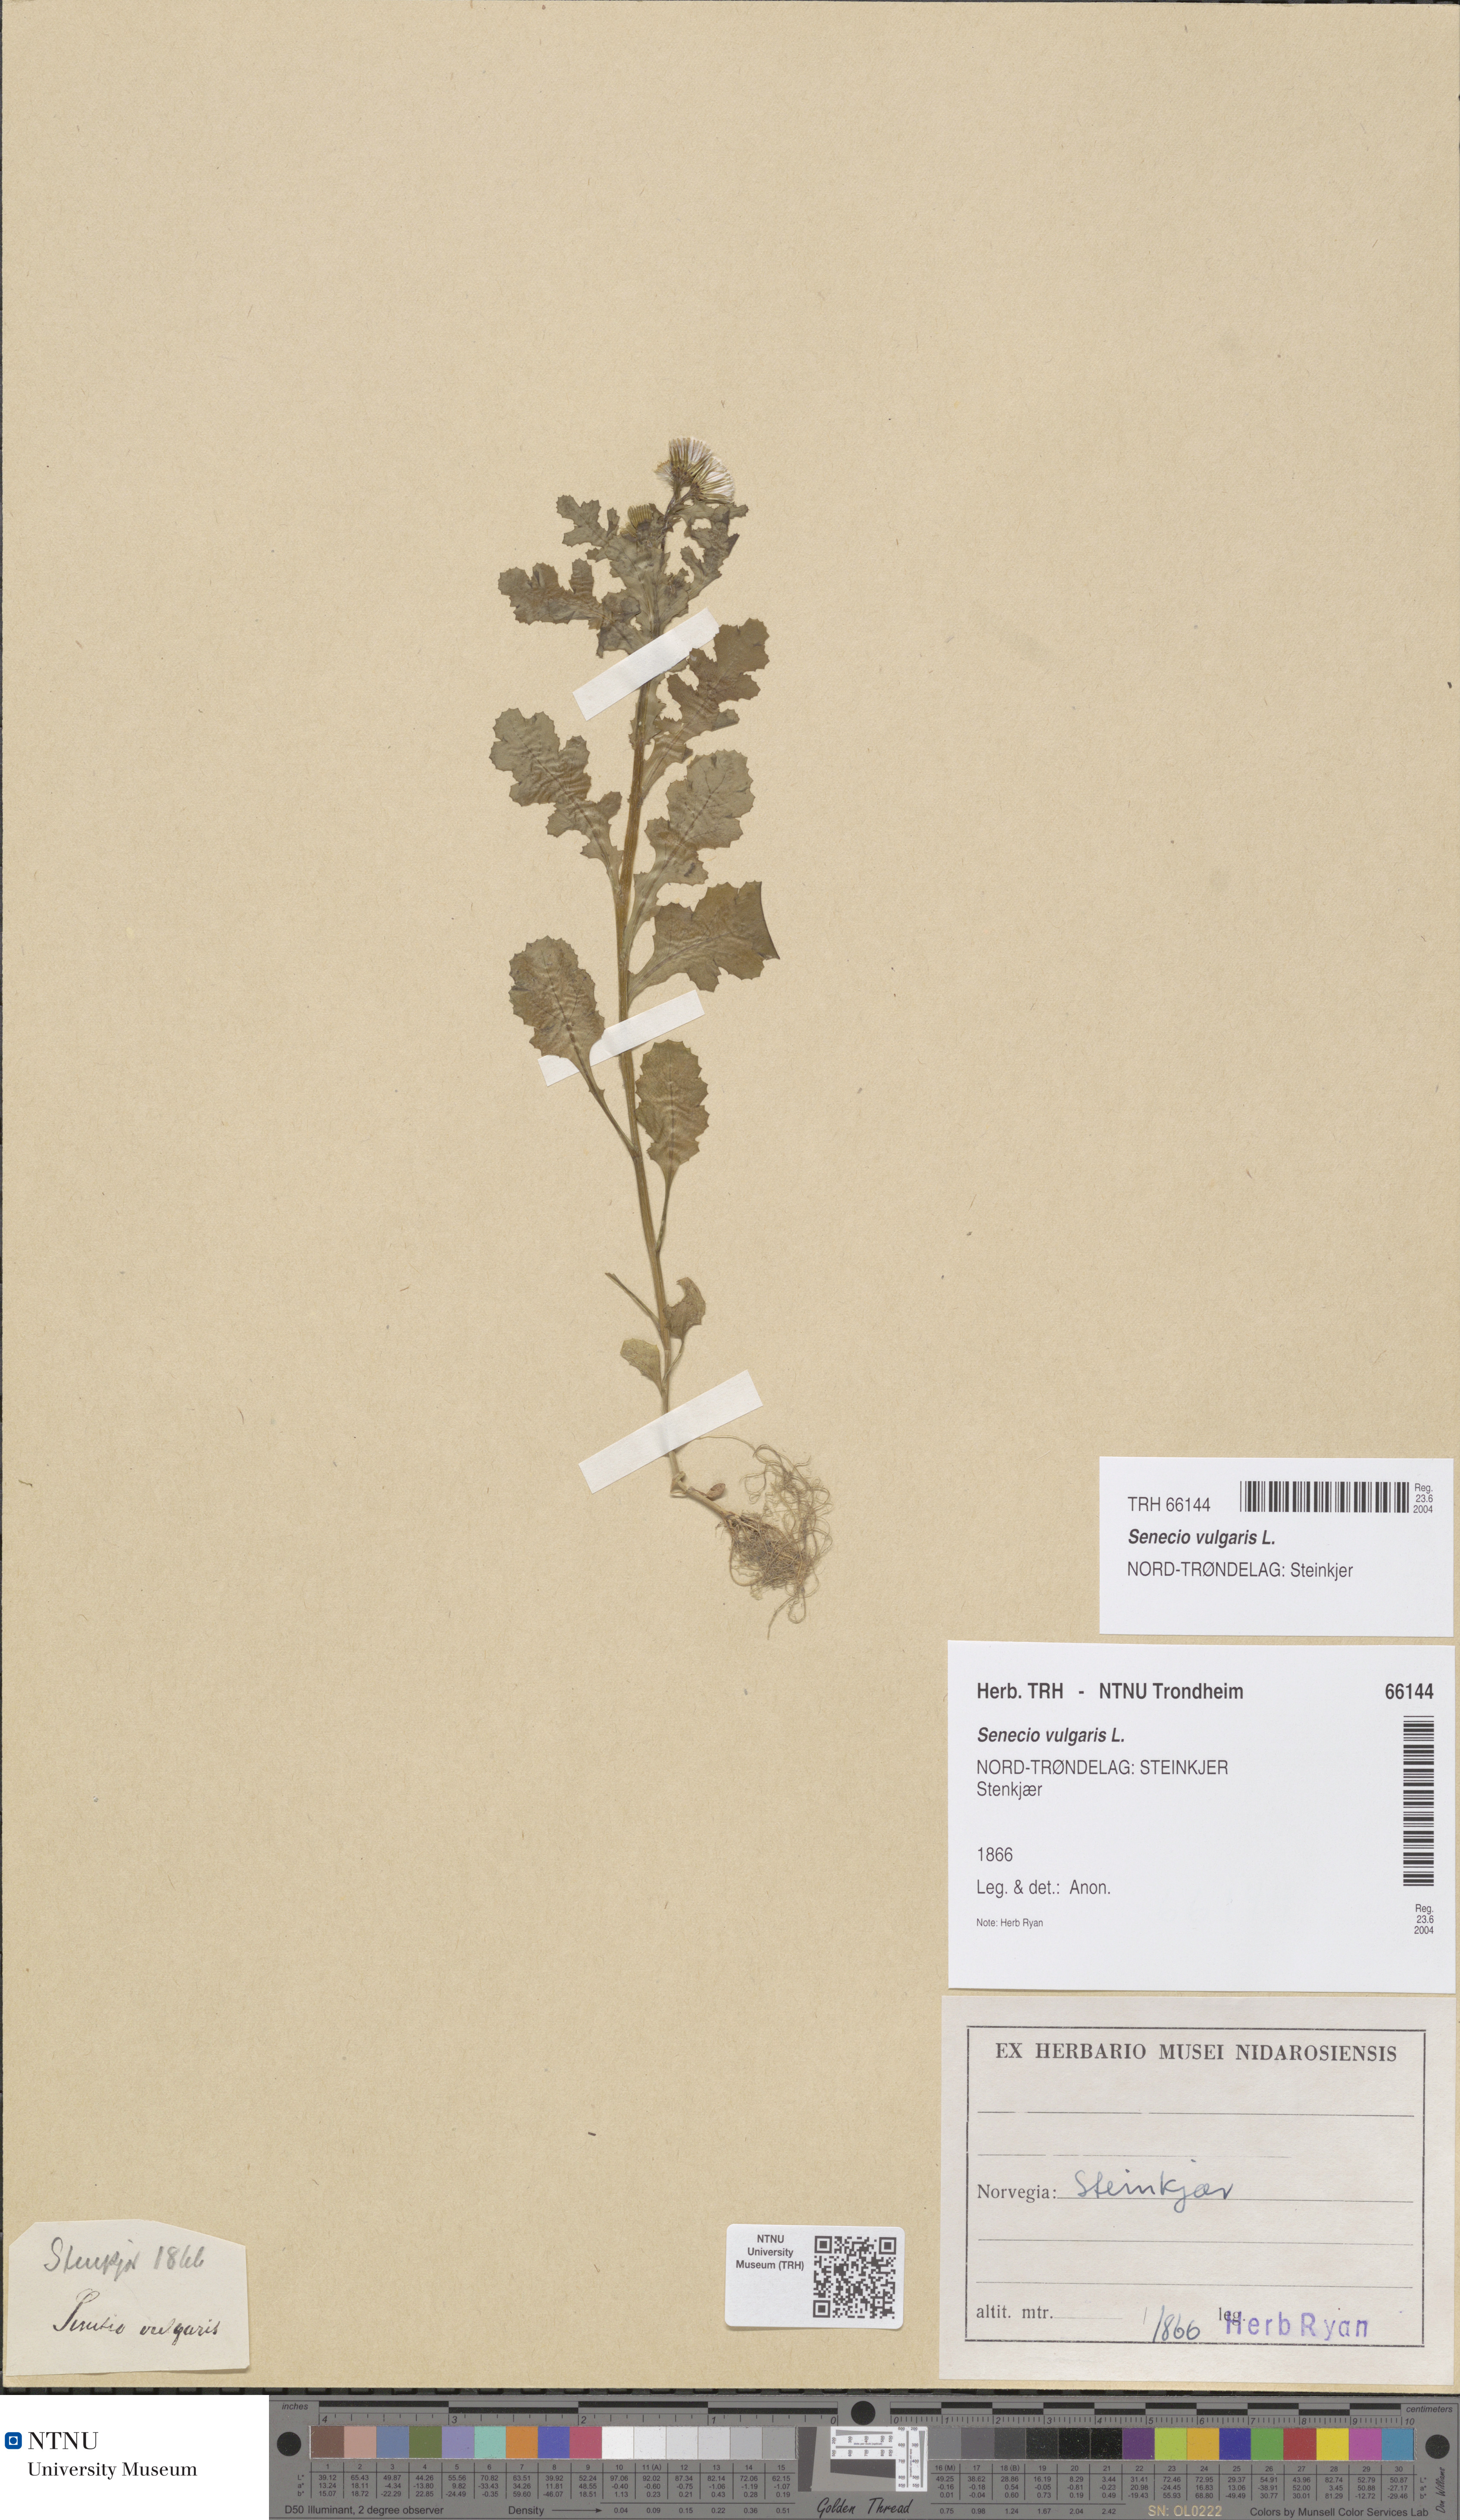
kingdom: Plantae
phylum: Tracheophyta
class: Magnoliopsida
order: Asterales
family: Asteraceae
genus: Senecio
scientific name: Senecio vulgaris
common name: Old-man-in-the-spring
